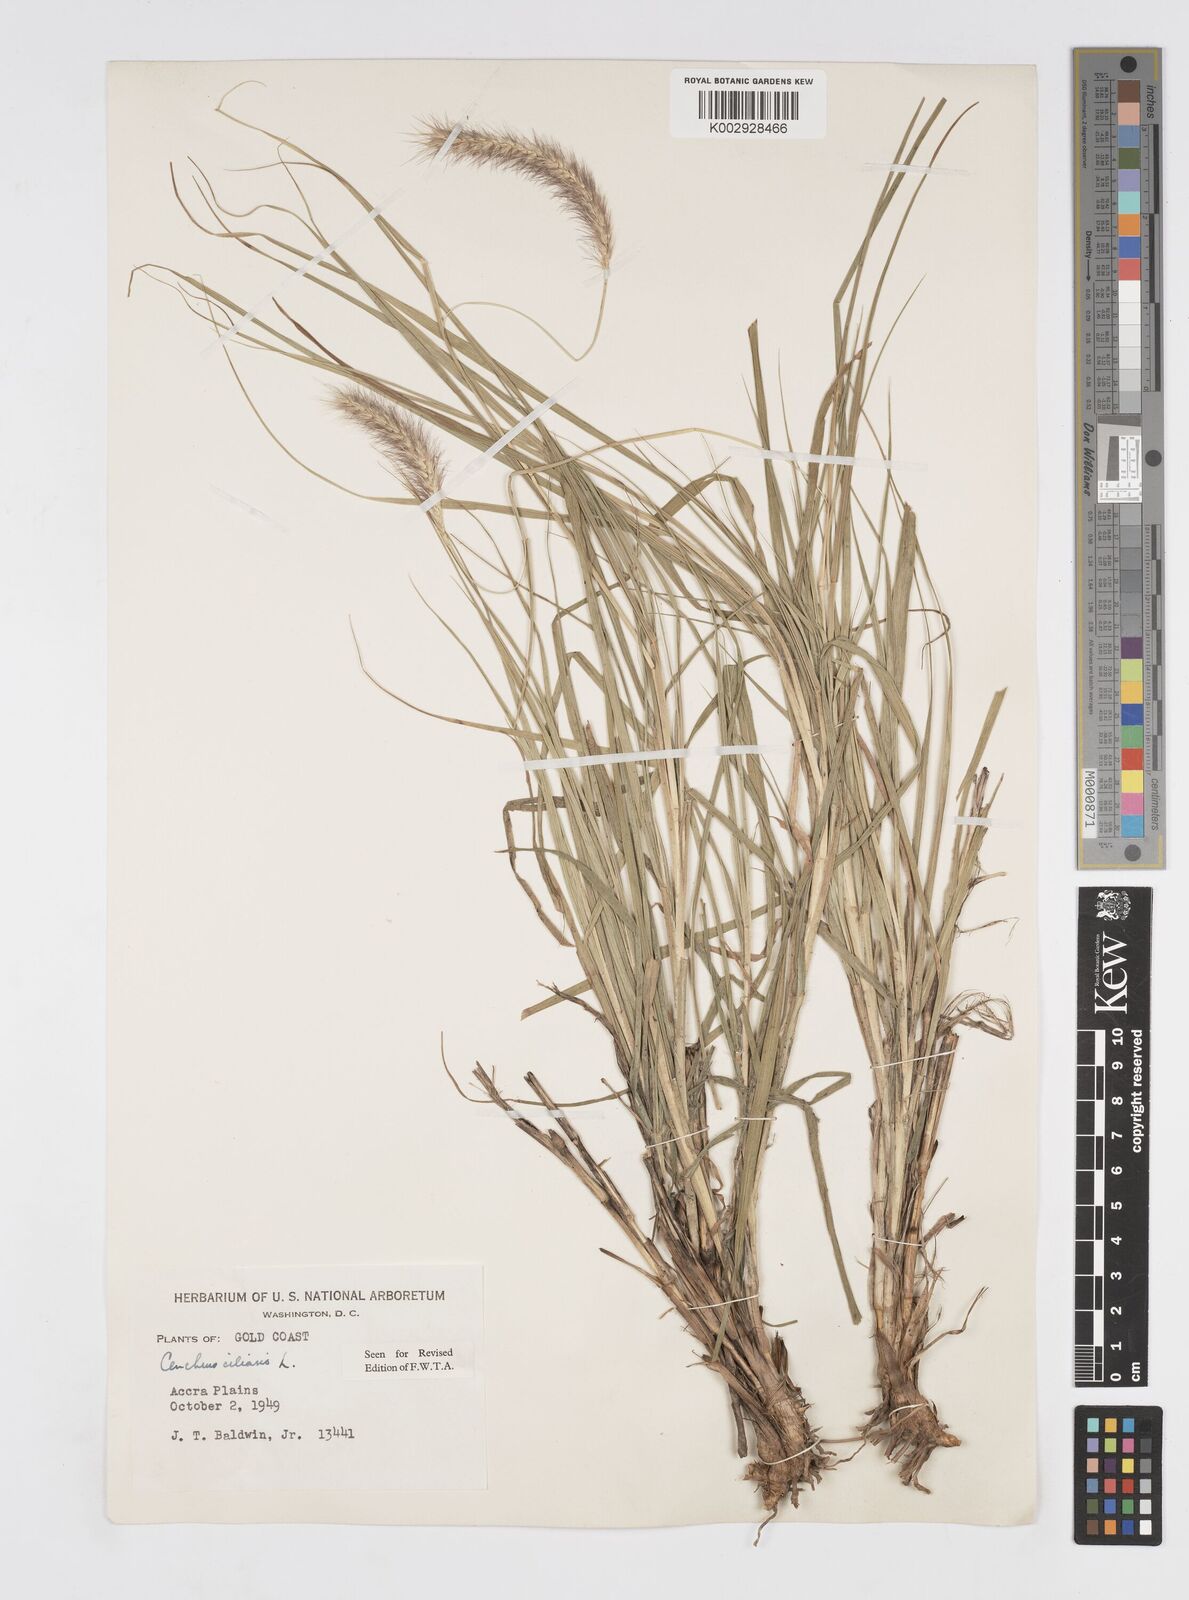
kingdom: Plantae
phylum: Tracheophyta
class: Liliopsida
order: Poales
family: Poaceae
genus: Cenchrus
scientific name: Cenchrus ciliaris
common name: Buffelgrass
